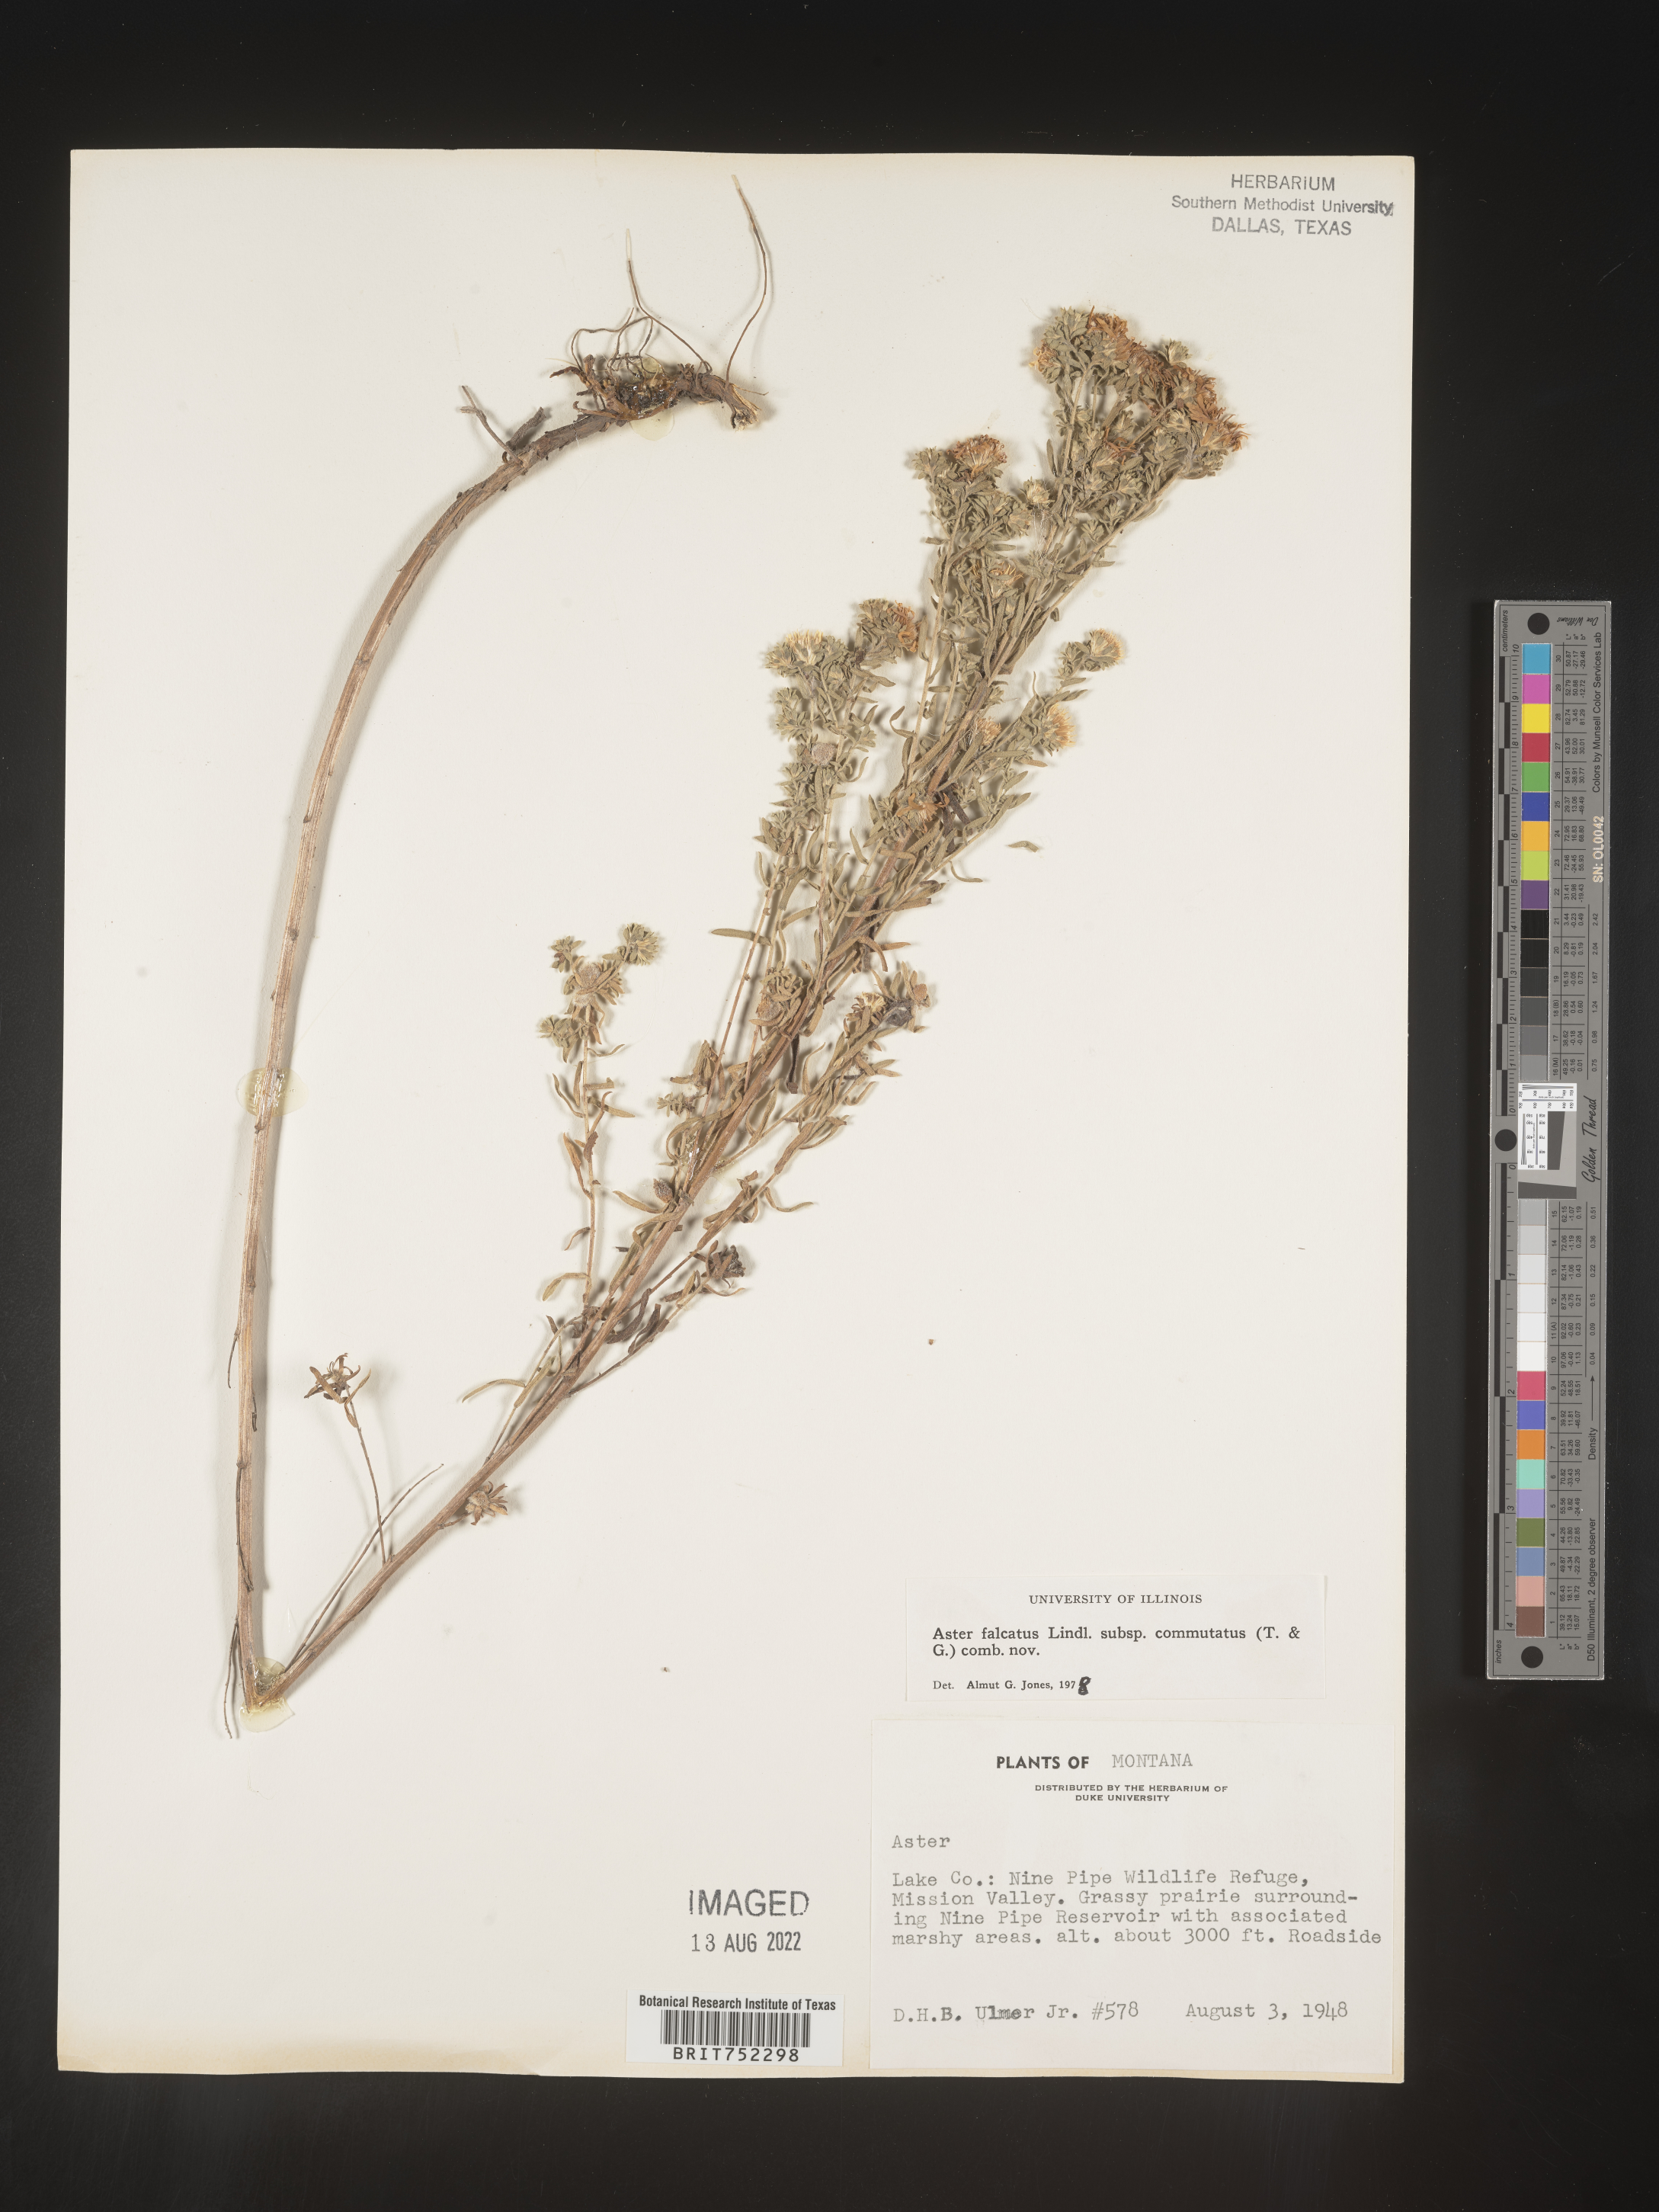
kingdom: Plantae
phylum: Tracheophyta
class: Magnoliopsida
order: Asterales
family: Asteraceae
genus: Symphyotrichum
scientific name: Symphyotrichum falcatum
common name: Creeping white prairie aster
